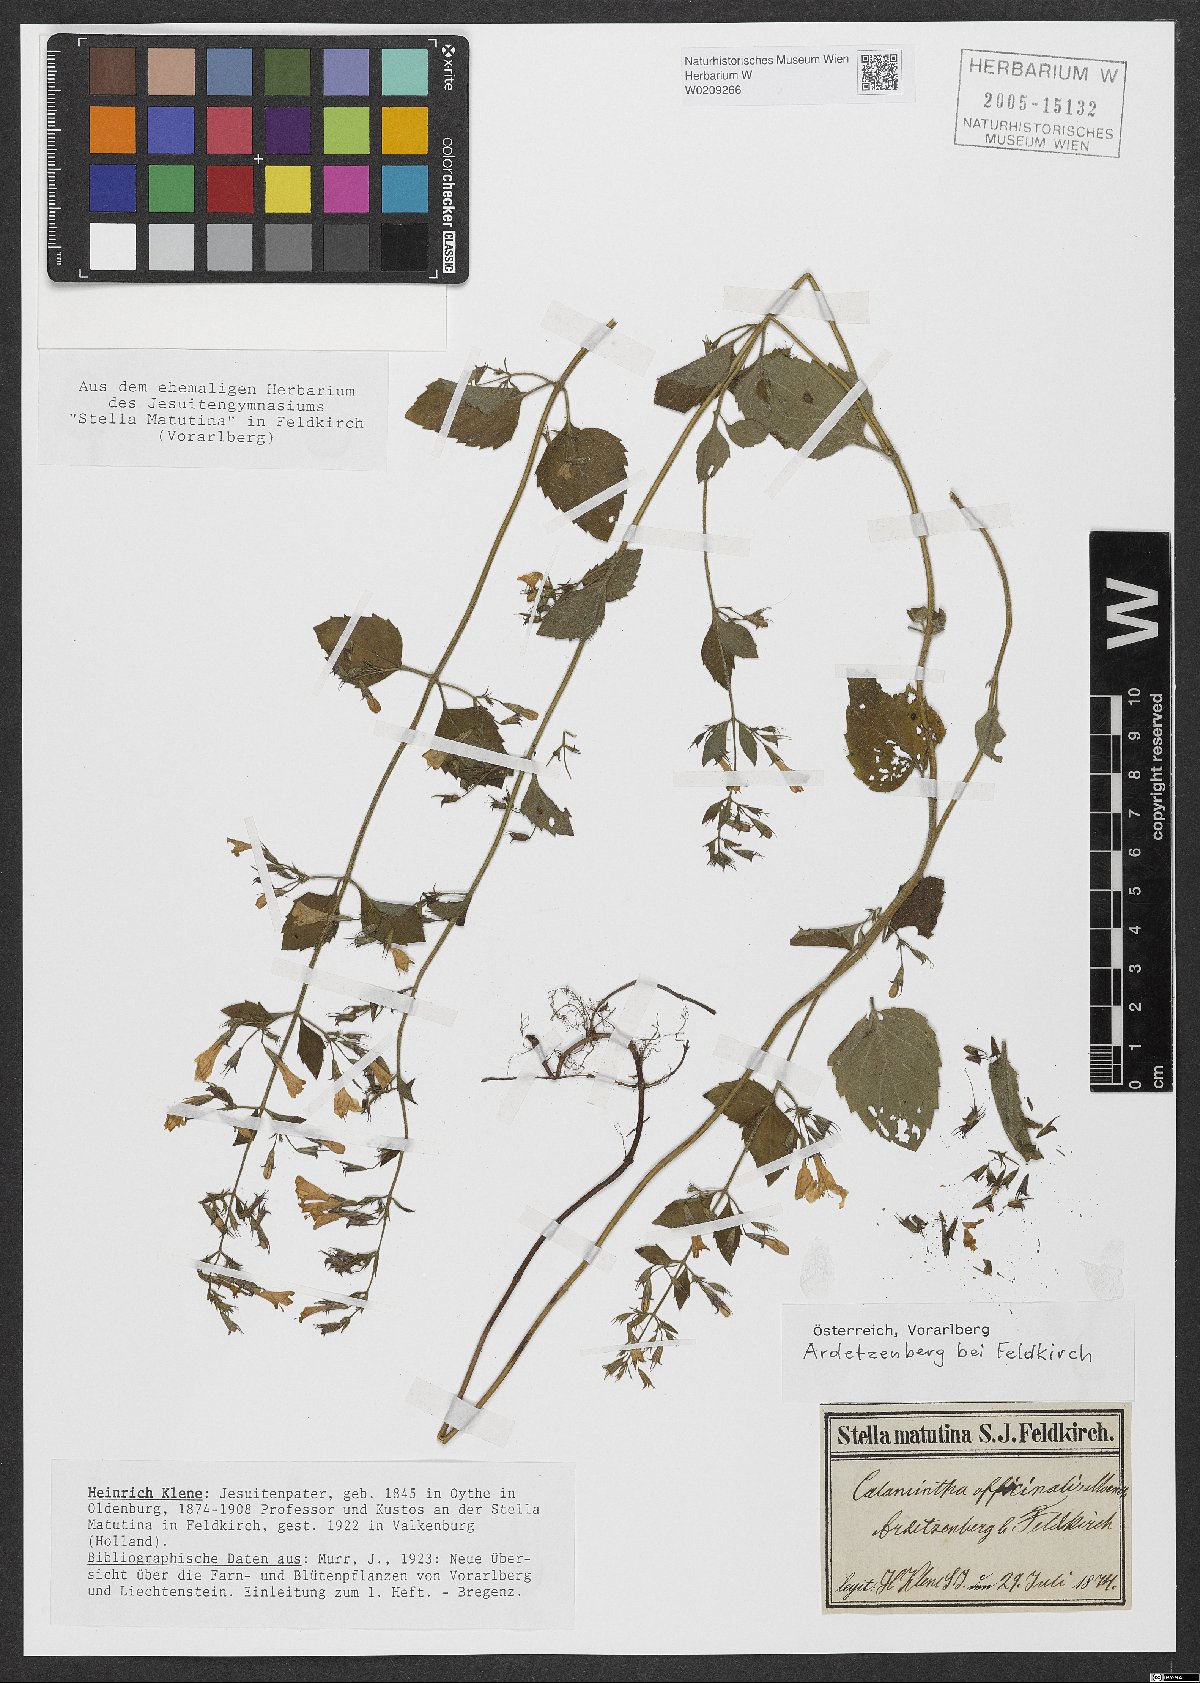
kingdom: Plantae
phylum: Tracheophyta
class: Magnoliopsida
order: Lamiales
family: Lamiaceae
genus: Clinopodium
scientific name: Clinopodium nepeta
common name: Lesser calamint
